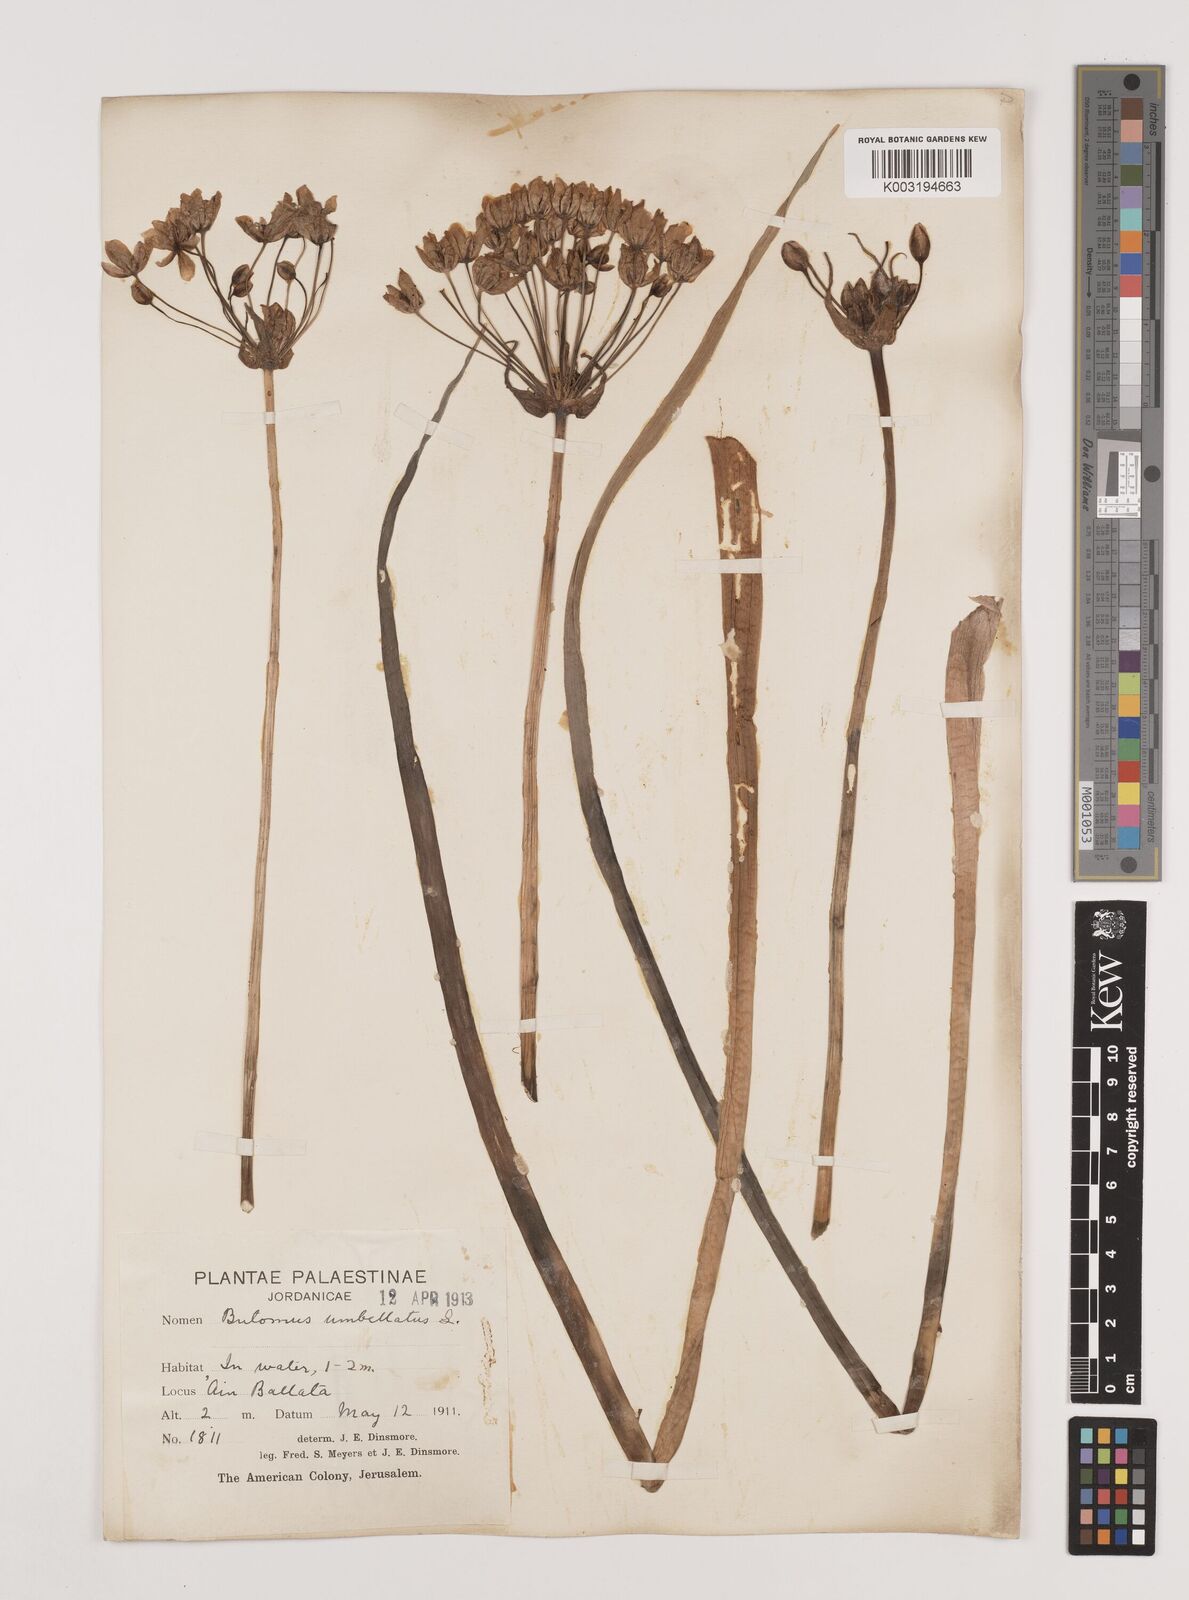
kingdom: Plantae
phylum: Tracheophyta
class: Liliopsida
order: Alismatales
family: Butomaceae
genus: Butomus
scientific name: Butomus
